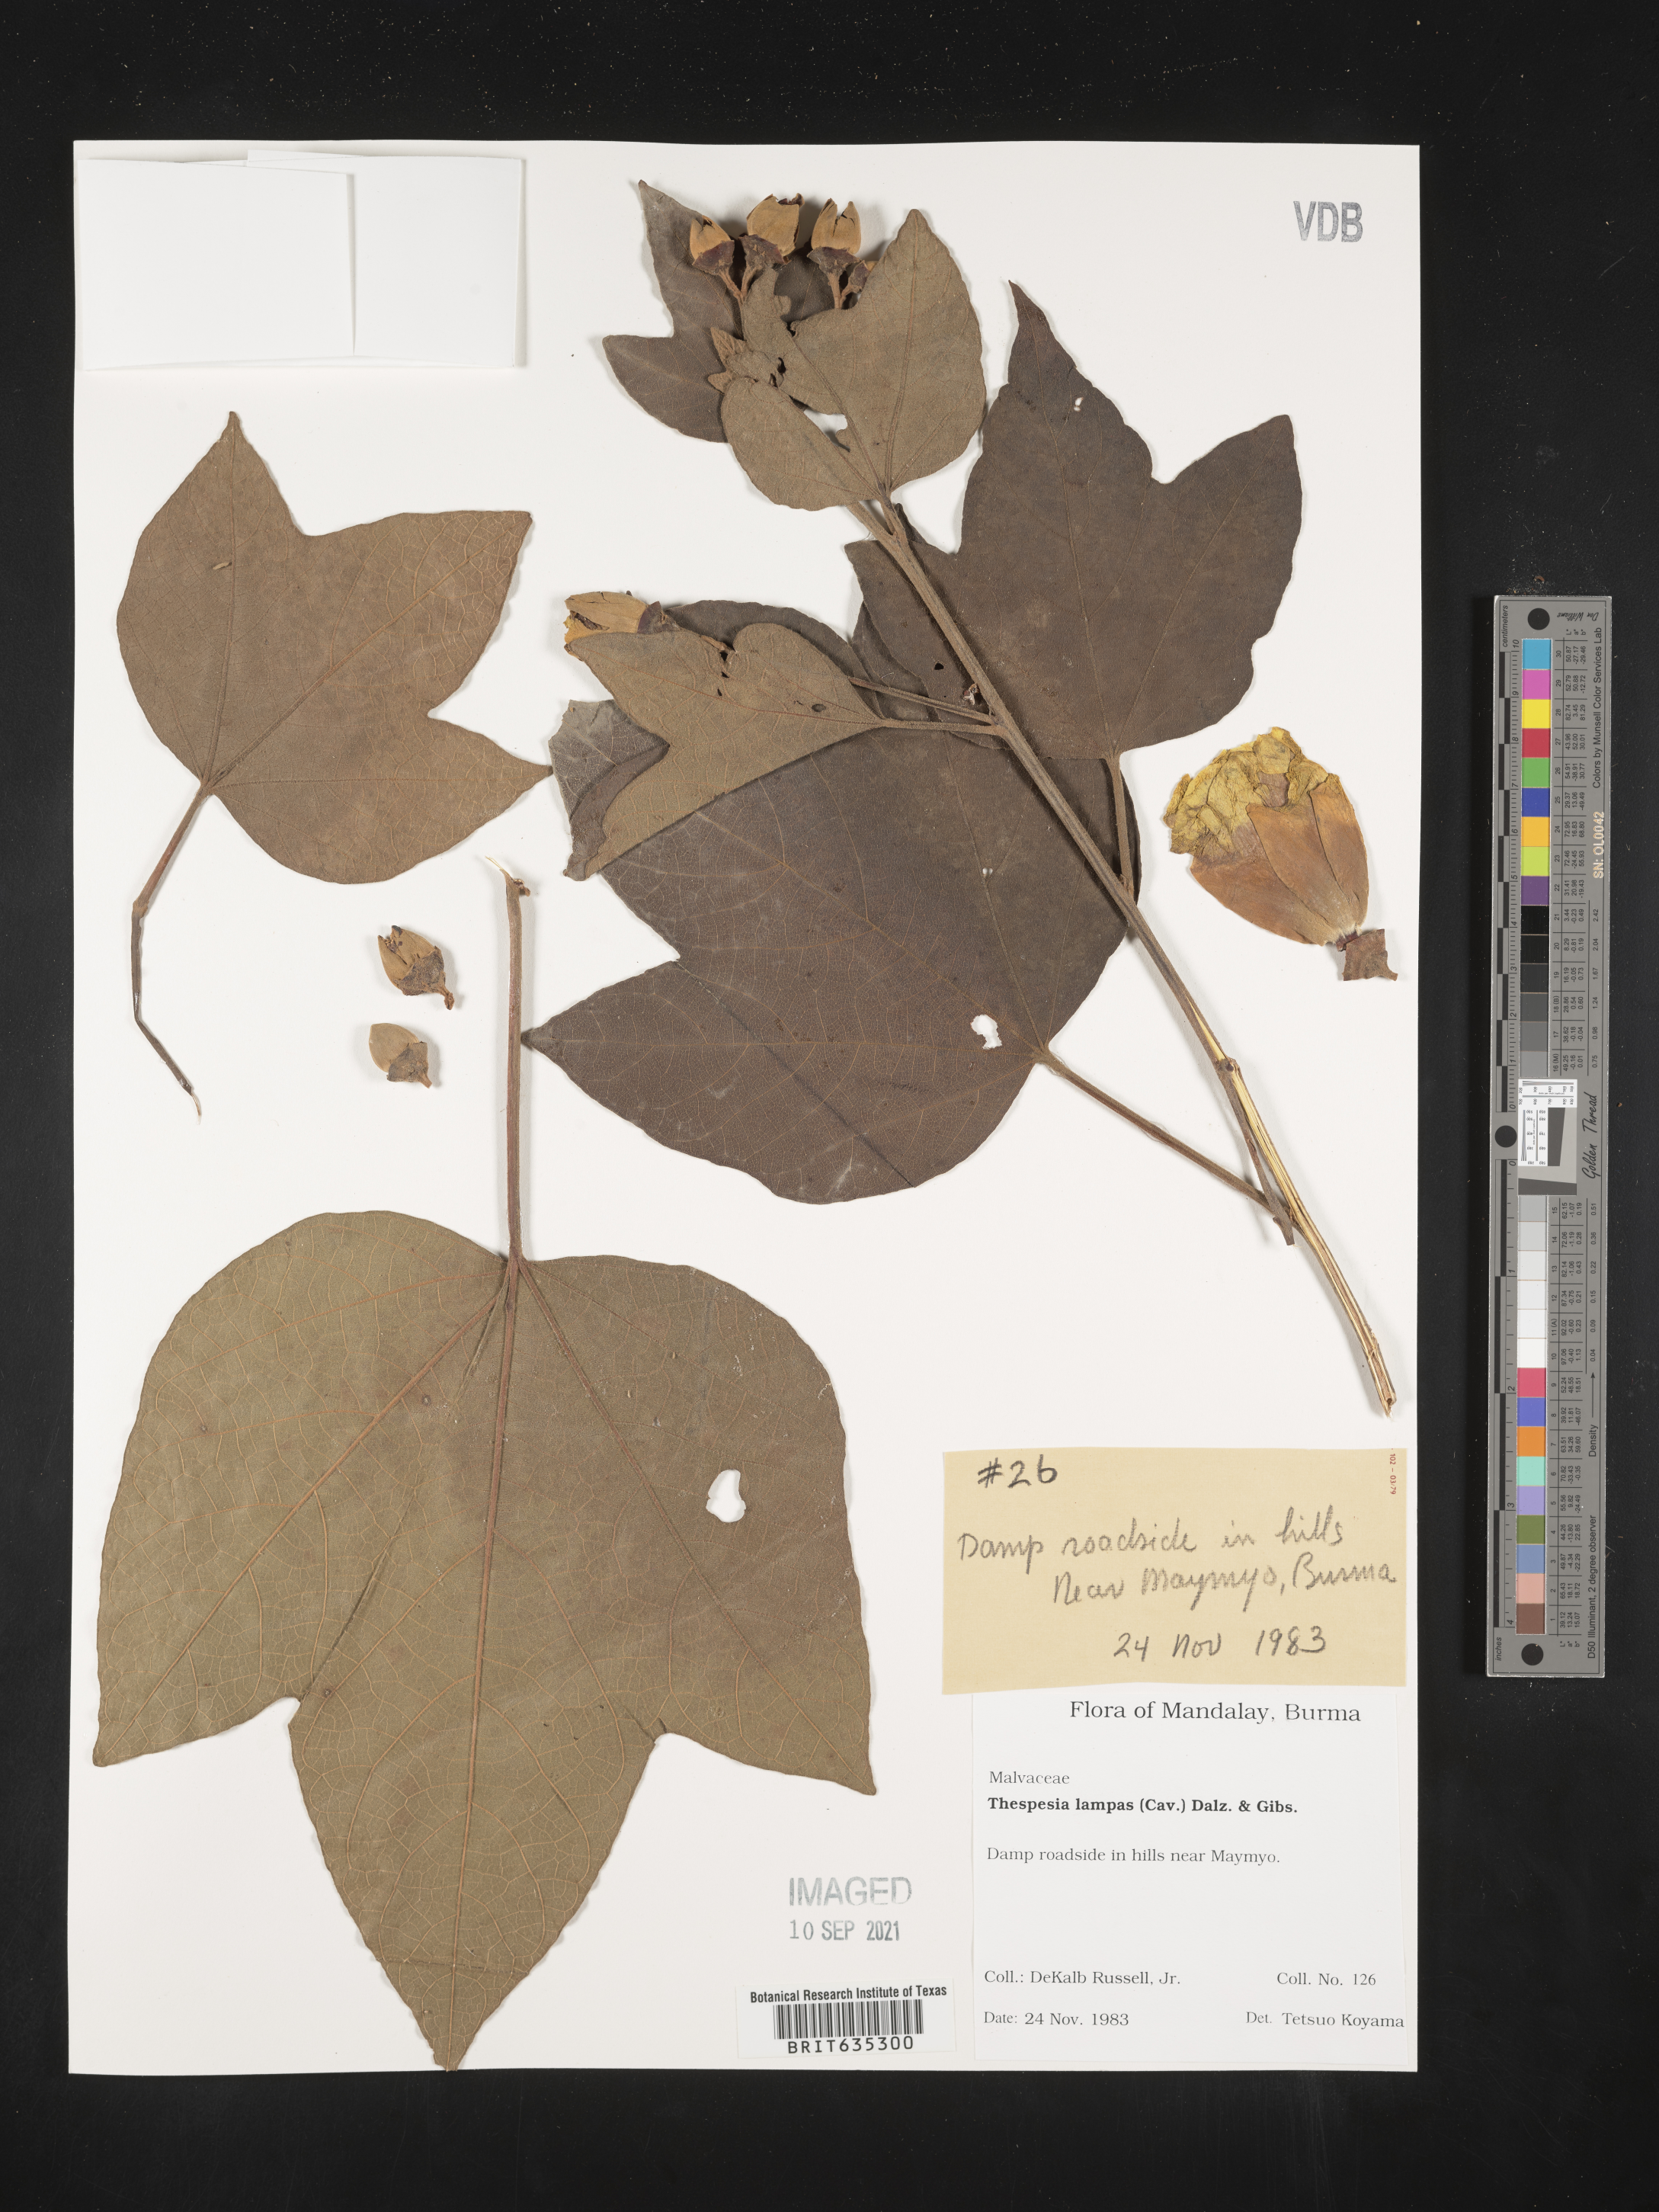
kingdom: Plantae
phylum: Tracheophyta
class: Magnoliopsida
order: Malvales
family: Malvaceae
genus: Thespesia
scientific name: Thespesia
